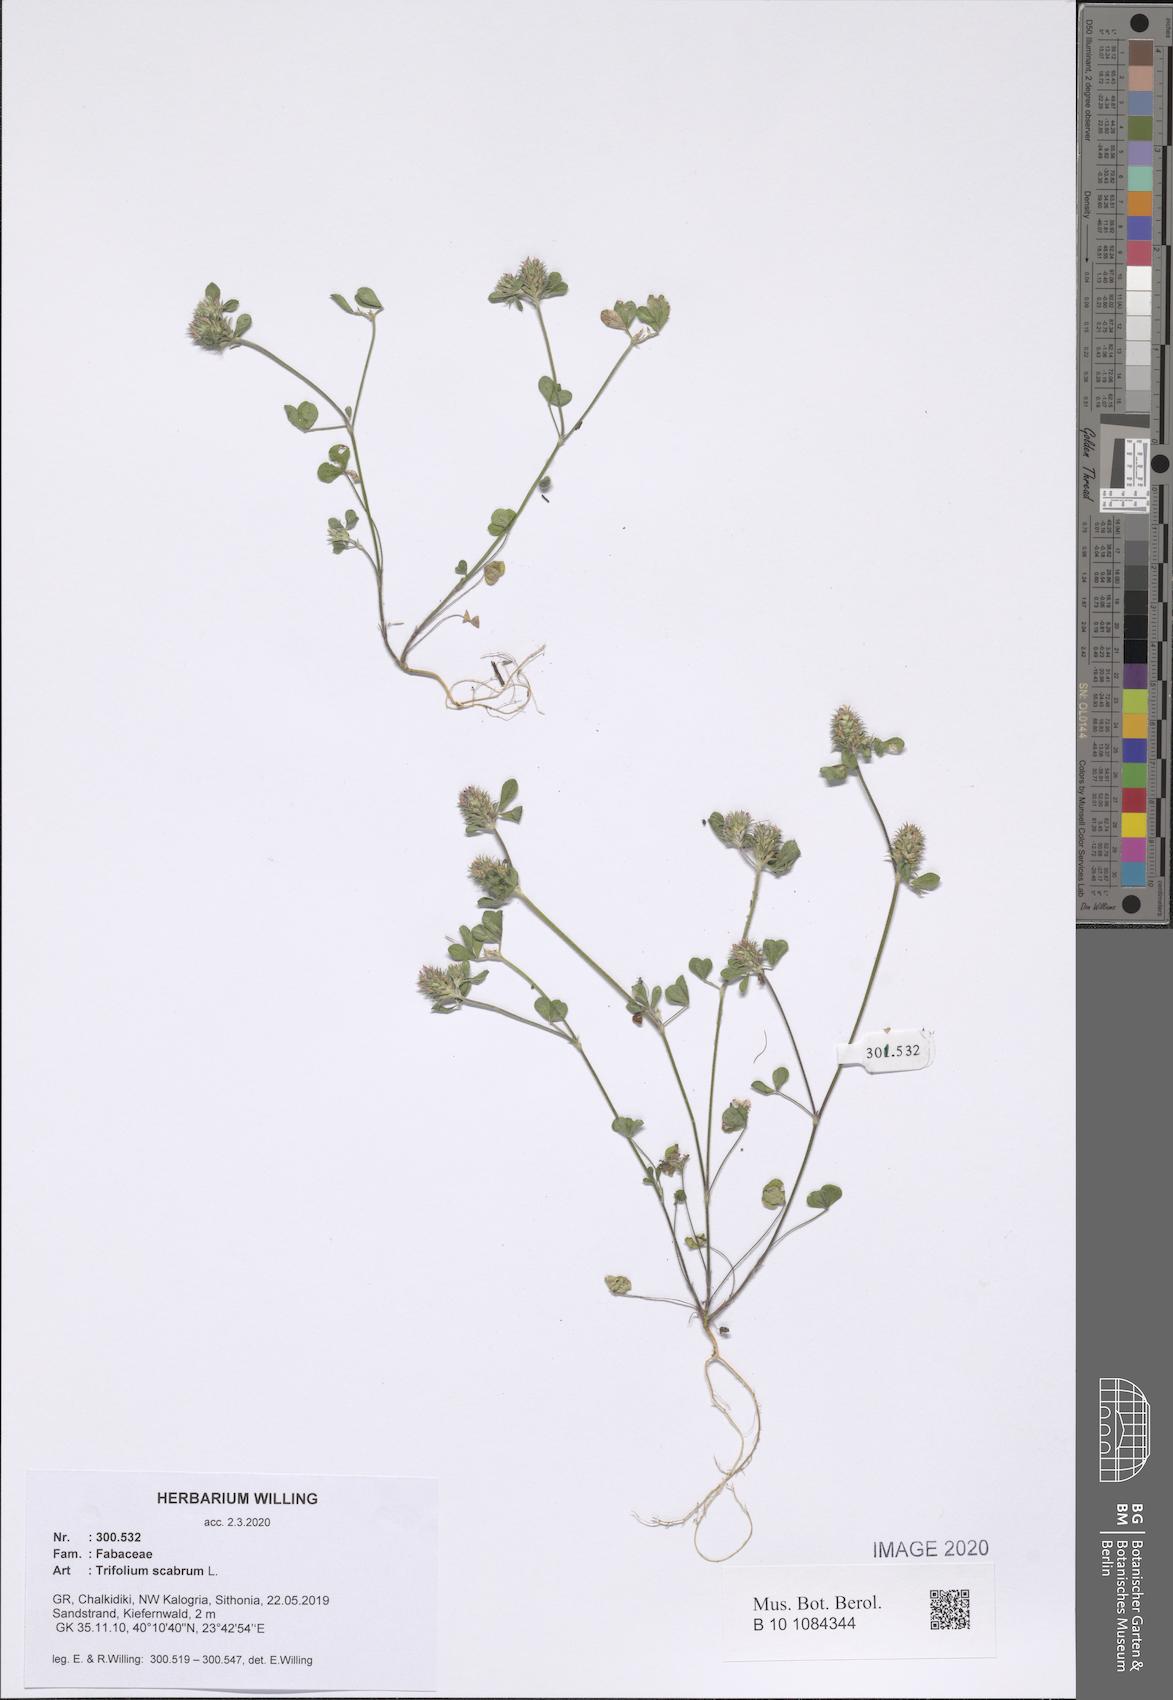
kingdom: Plantae
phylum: Tracheophyta
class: Magnoliopsida
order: Fabales
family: Fabaceae
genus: Trifolium
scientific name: Trifolium scabrum
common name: Rough clover
